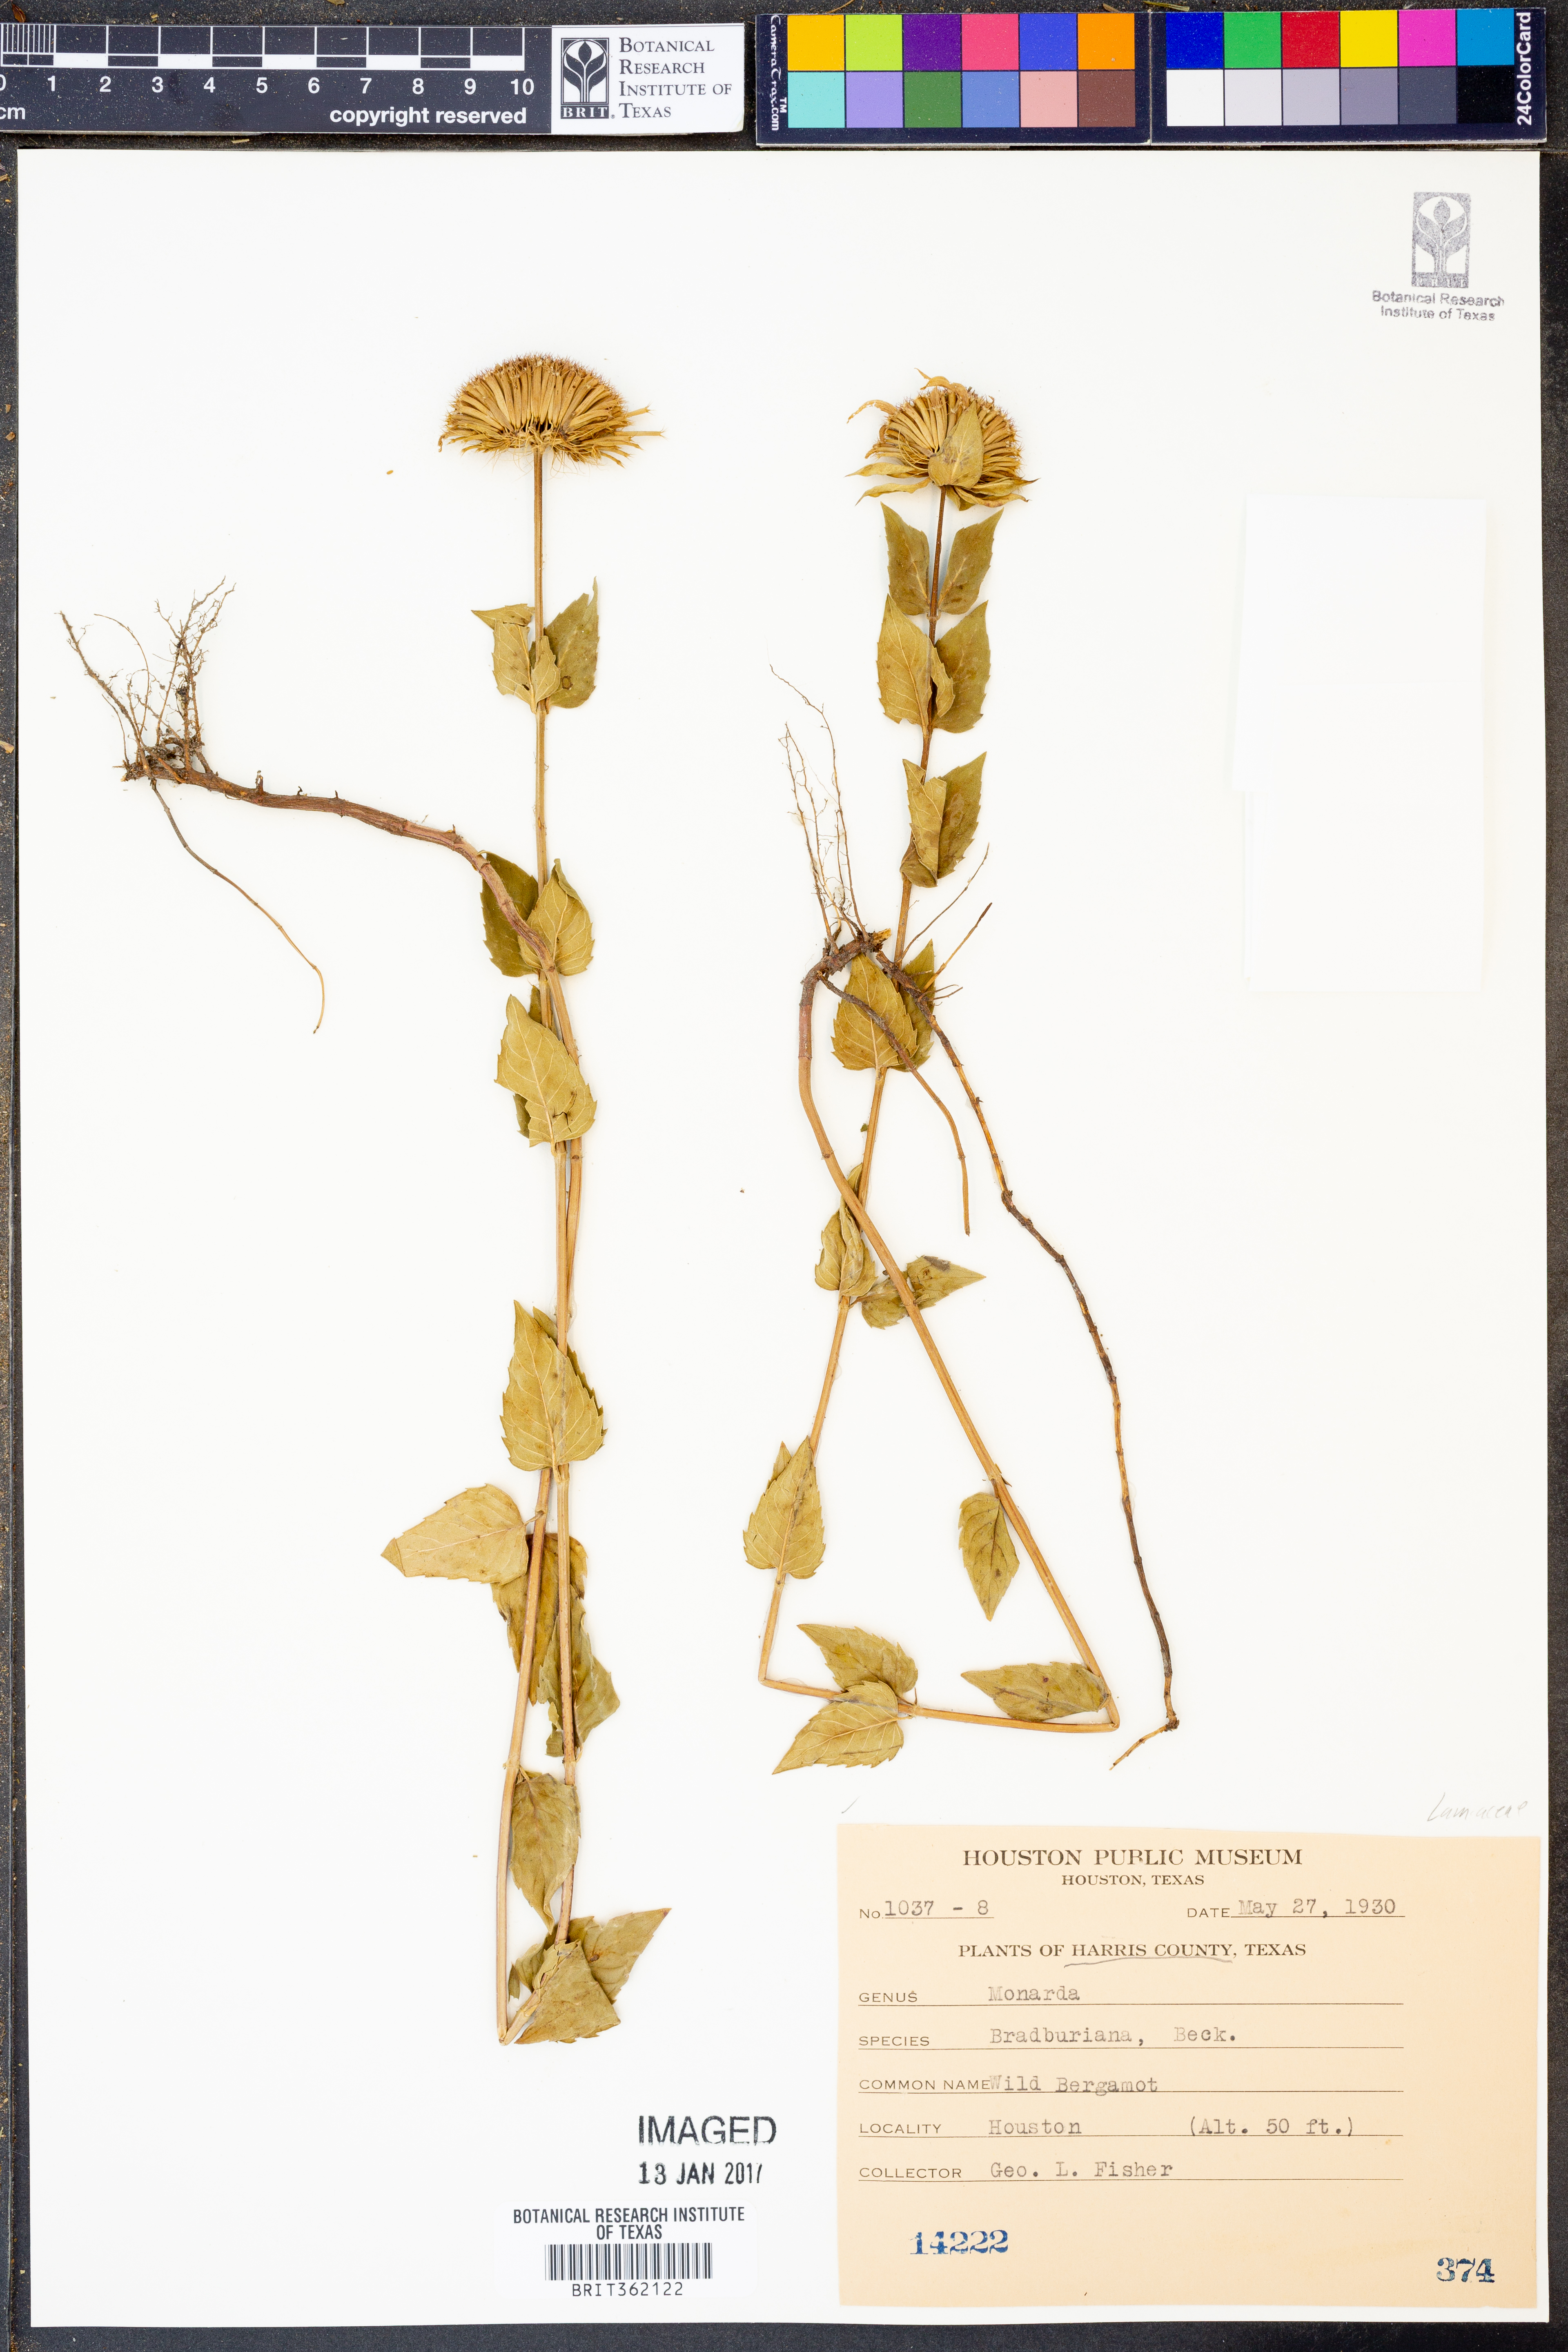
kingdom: Plantae
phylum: Tracheophyta
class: Magnoliopsida
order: Lamiales
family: Lamiaceae
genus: Monarda
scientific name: Monarda bradburiana
